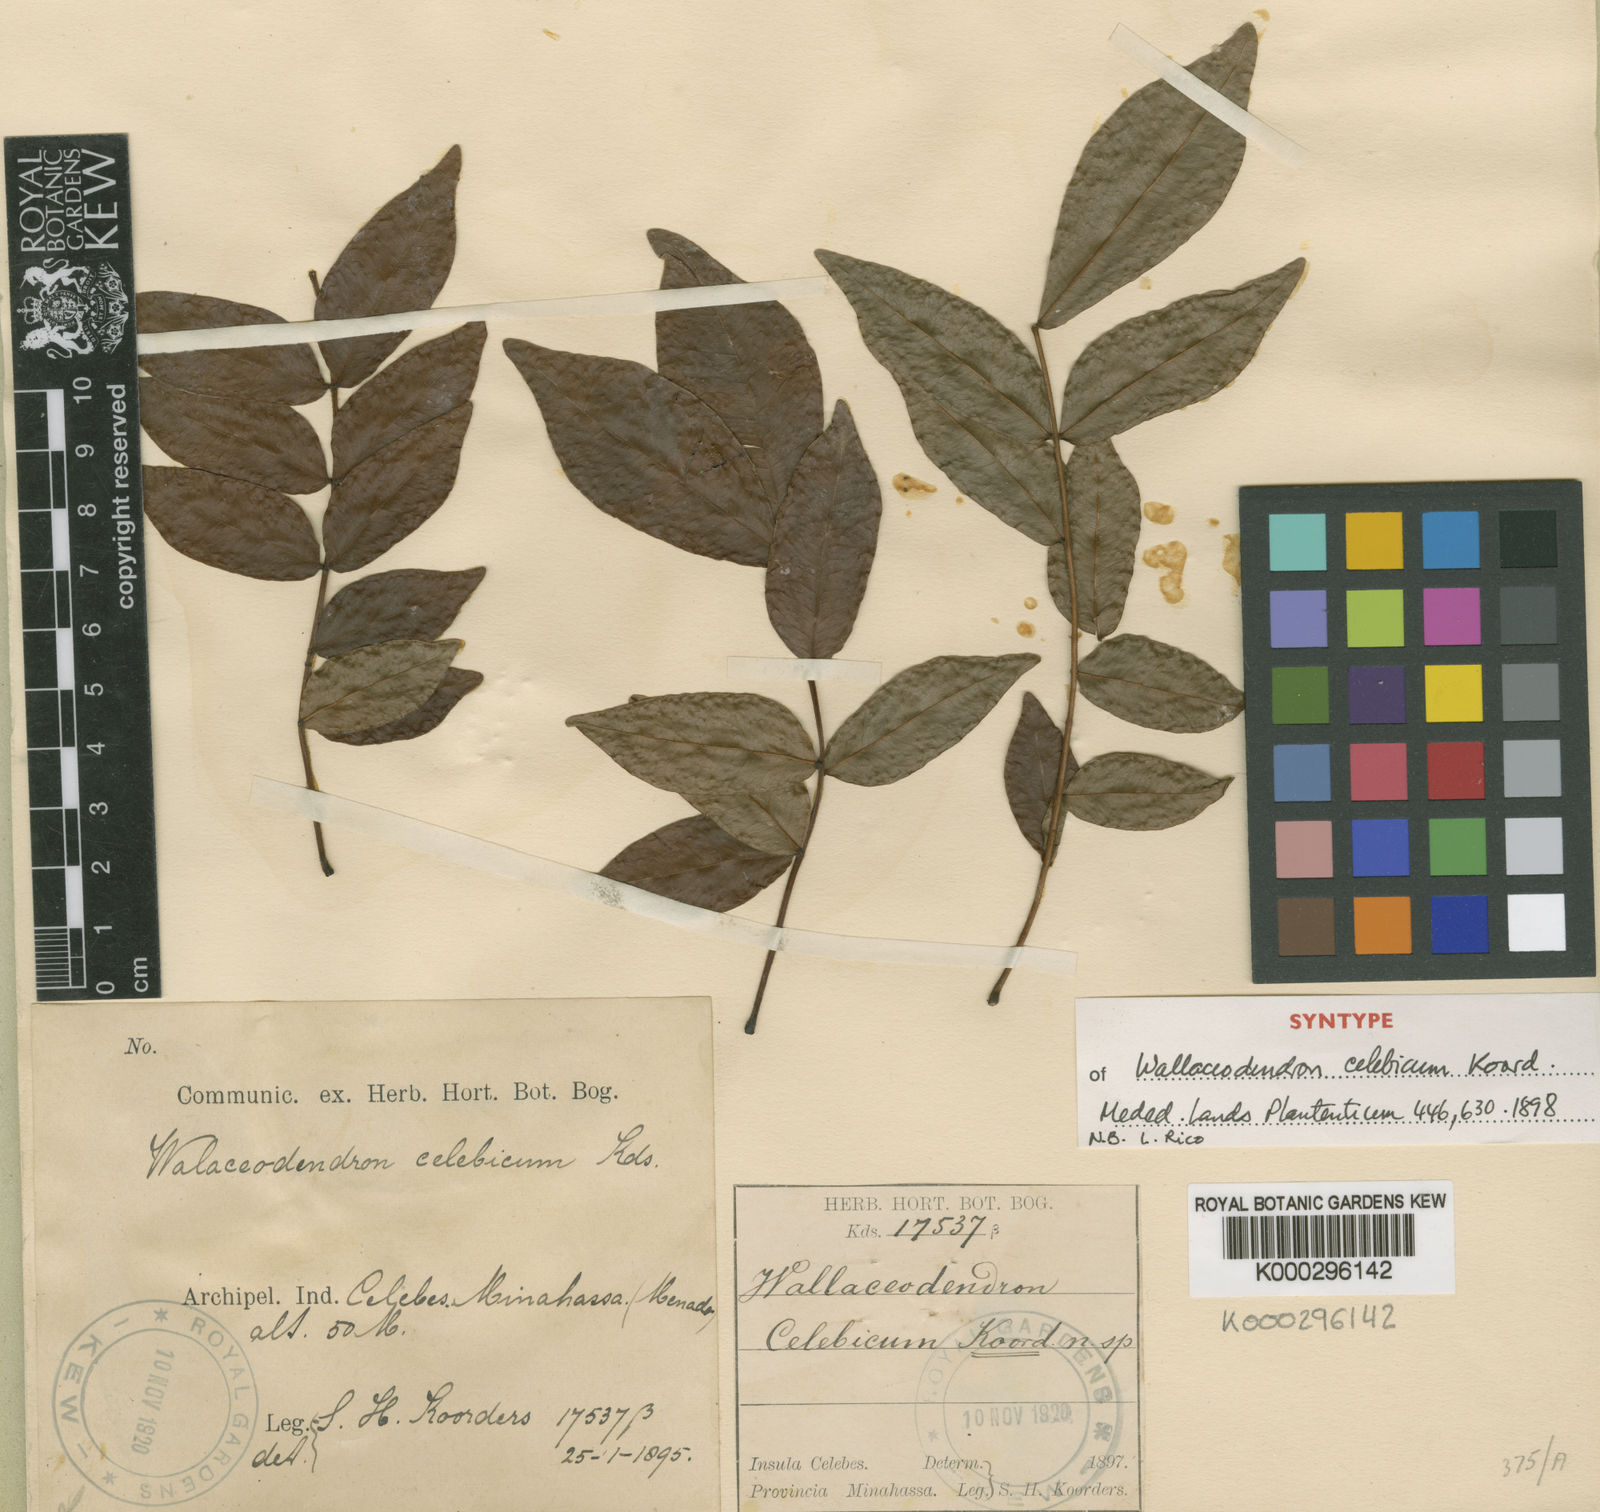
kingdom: Plantae
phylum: Tracheophyta
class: Magnoliopsida
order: Fabales
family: Fabaceae
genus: Wallaceodendron
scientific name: Wallaceodendron celebicum
